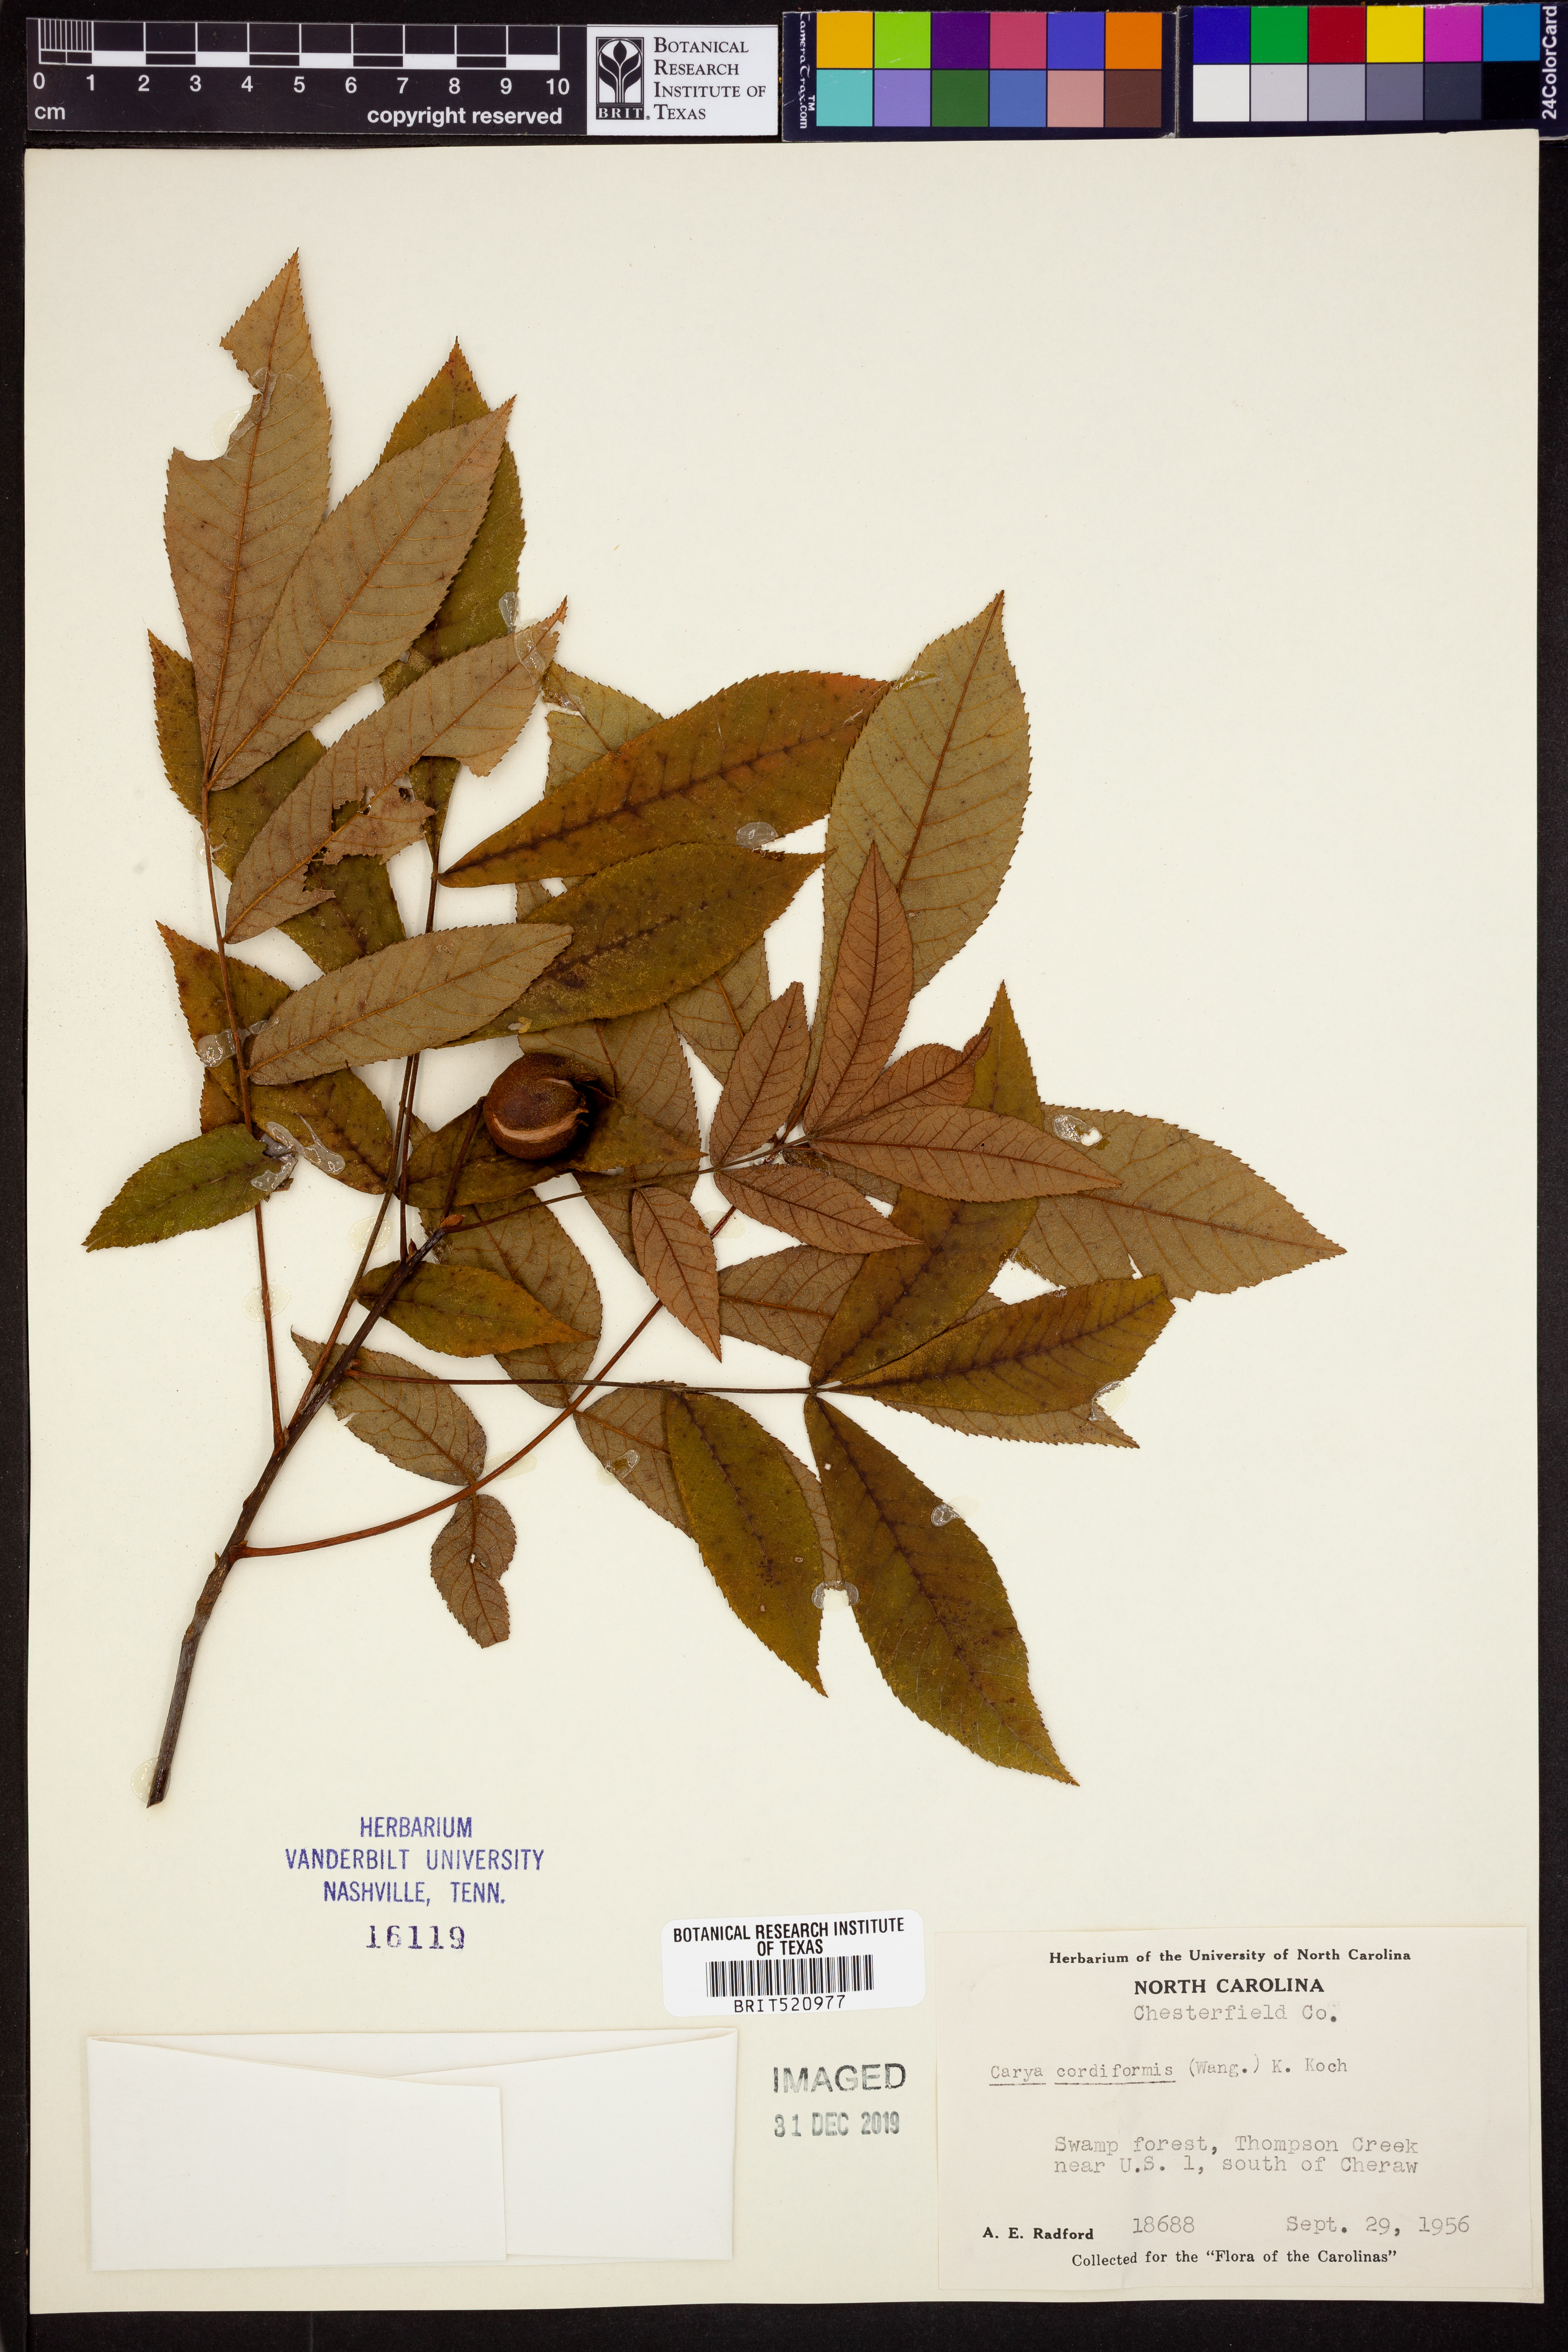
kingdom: Plantae
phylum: Tracheophyta
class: Magnoliopsida
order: Fagales
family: Juglandaceae
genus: Carya
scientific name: Carya cordiformis
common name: Bitternut hickory
